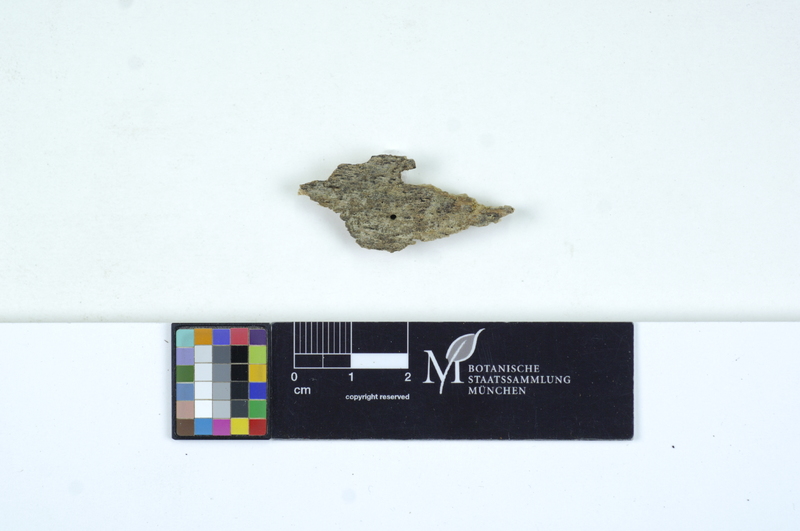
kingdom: Fungi
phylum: Basidiomycota
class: Agaricomycetes
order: Cantharellales
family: Tulasnellaceae
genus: Tulasnella
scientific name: Tulasnella violea
